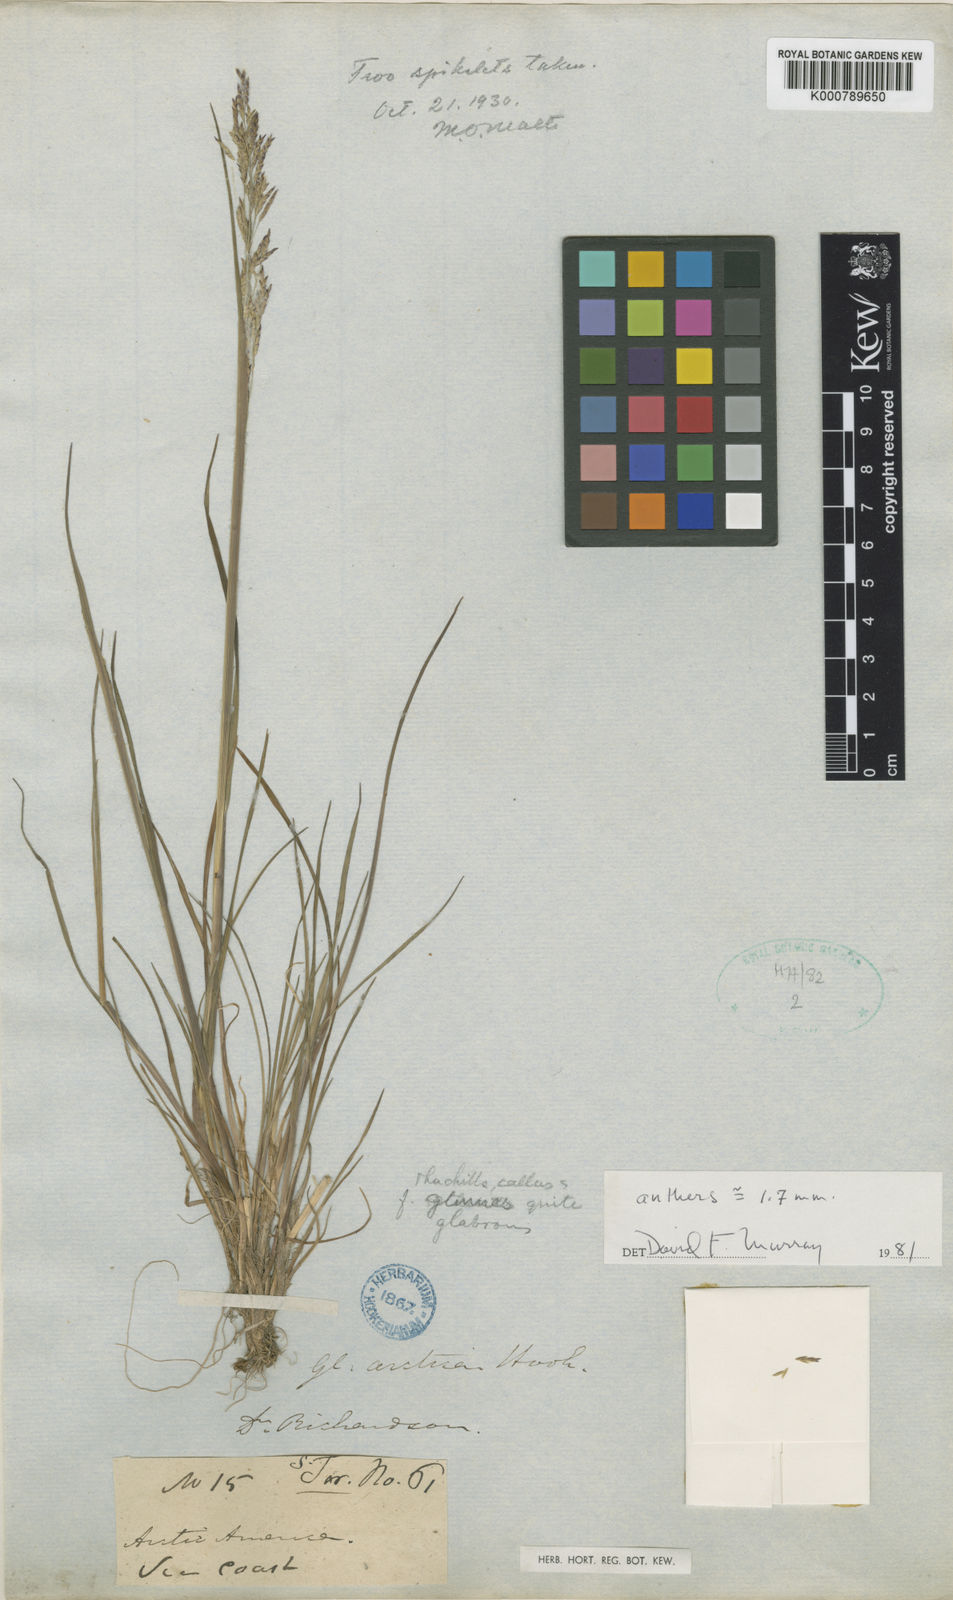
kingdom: Plantae
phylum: Tracheophyta
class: Liliopsida
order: Poales
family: Poaceae
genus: Puccinellia
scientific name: Puccinellia arctica
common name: Arctic alkali grass
